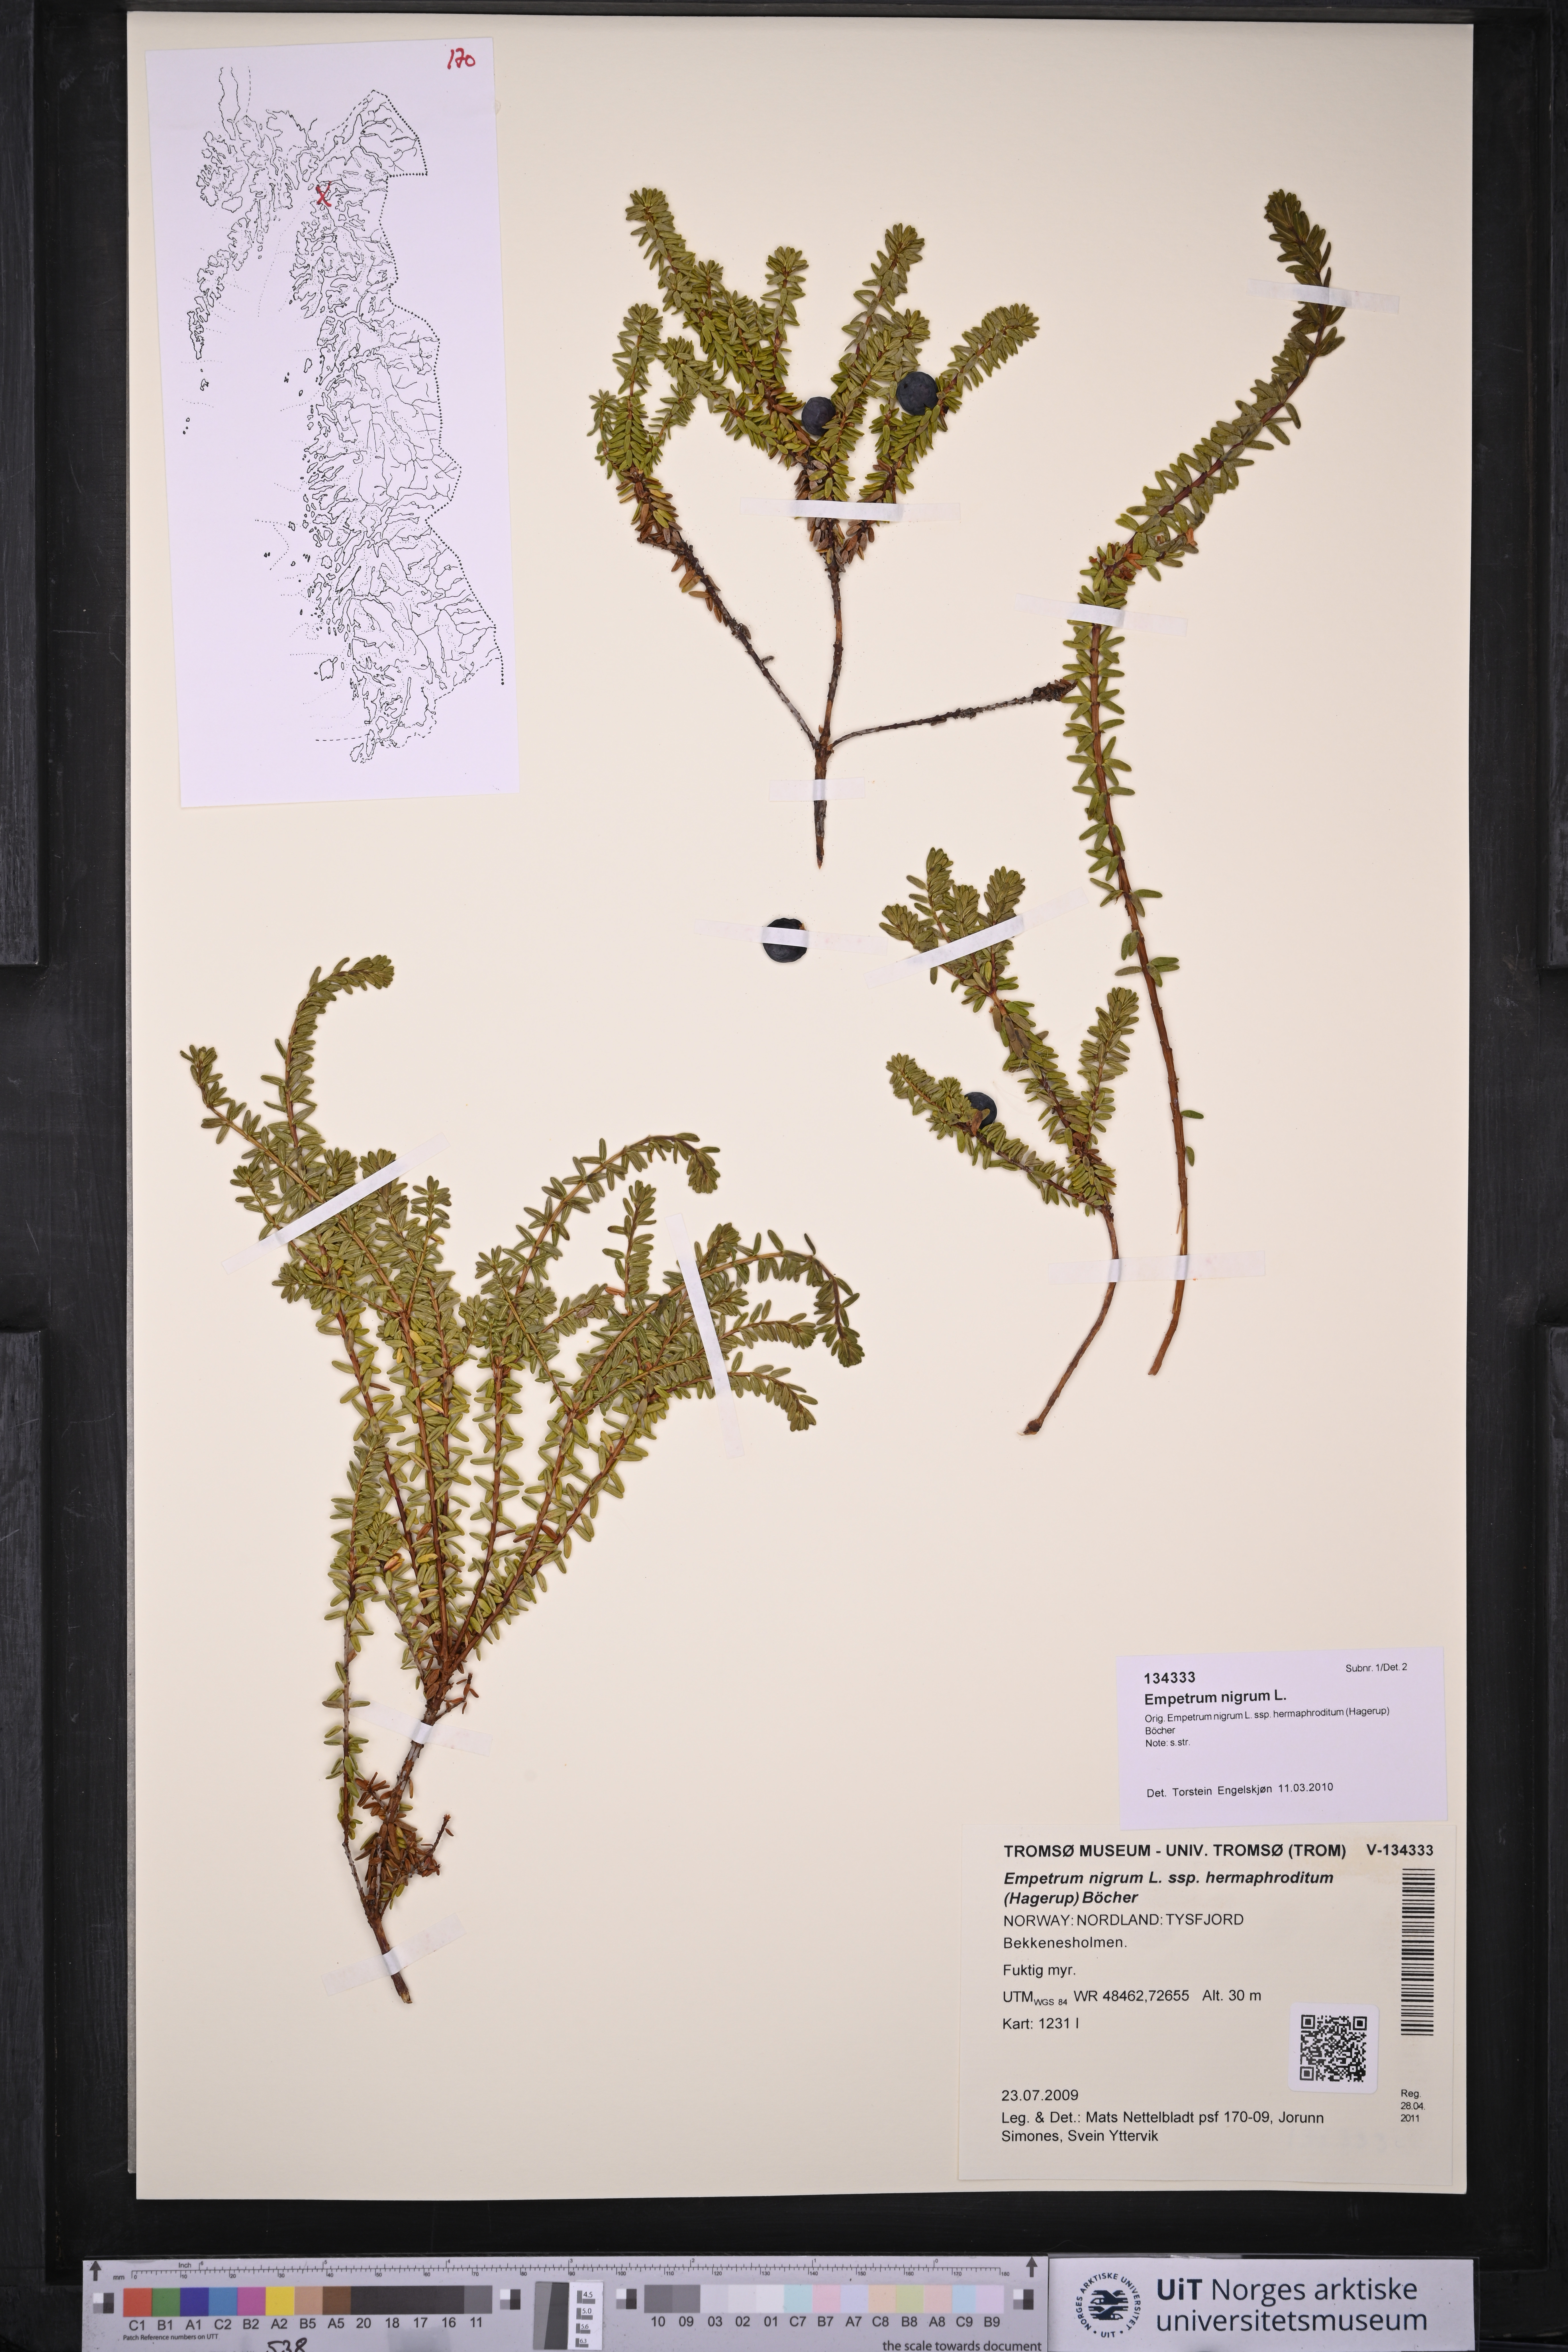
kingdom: Plantae
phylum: Tracheophyta
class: Magnoliopsida
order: Ericales
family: Ericaceae
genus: Empetrum
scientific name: Empetrum nigrum
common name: Black crowberry
